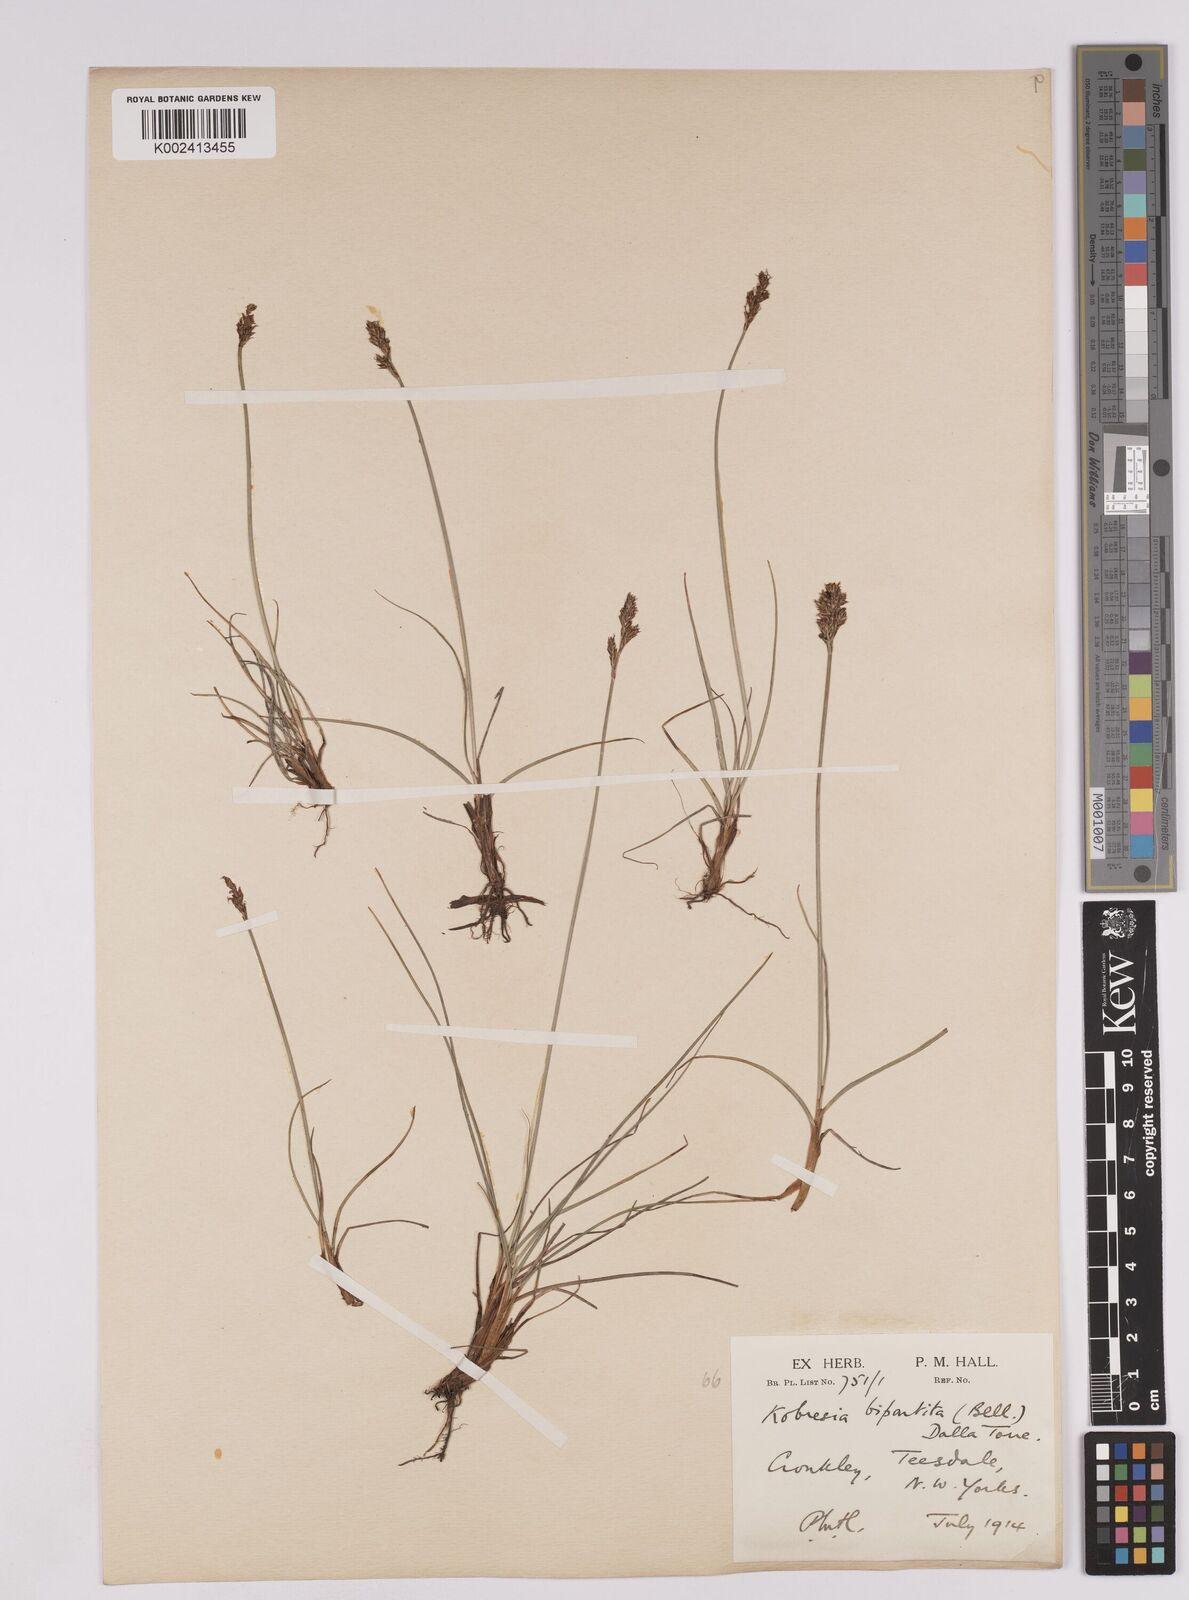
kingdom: Plantae
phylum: Tracheophyta
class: Liliopsida
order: Poales
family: Cyperaceae
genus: Carex
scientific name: Carex simpliciuscula
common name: Simple bog sedge
